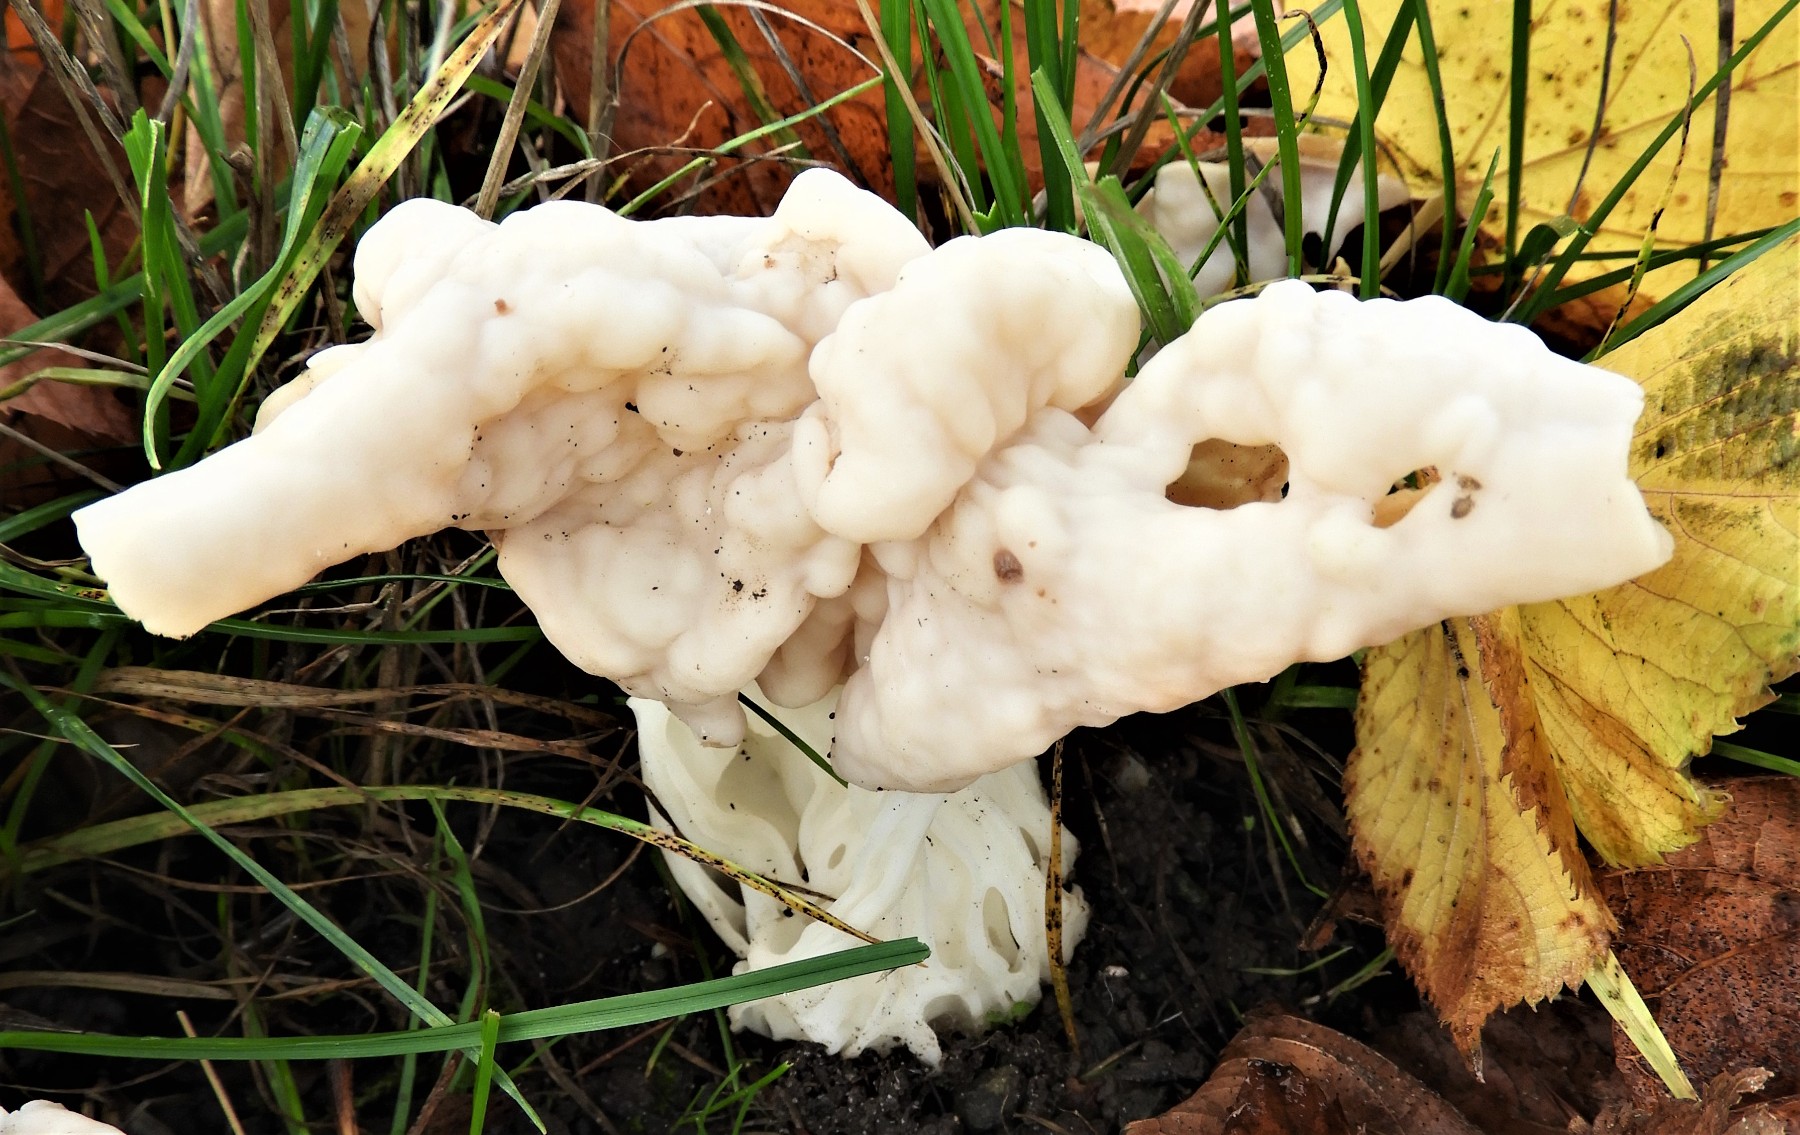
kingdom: Fungi
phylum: Ascomycota
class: Pezizomycetes
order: Pezizales
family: Helvellaceae
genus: Helvella
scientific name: Helvella crispa
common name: kruset foldhat
